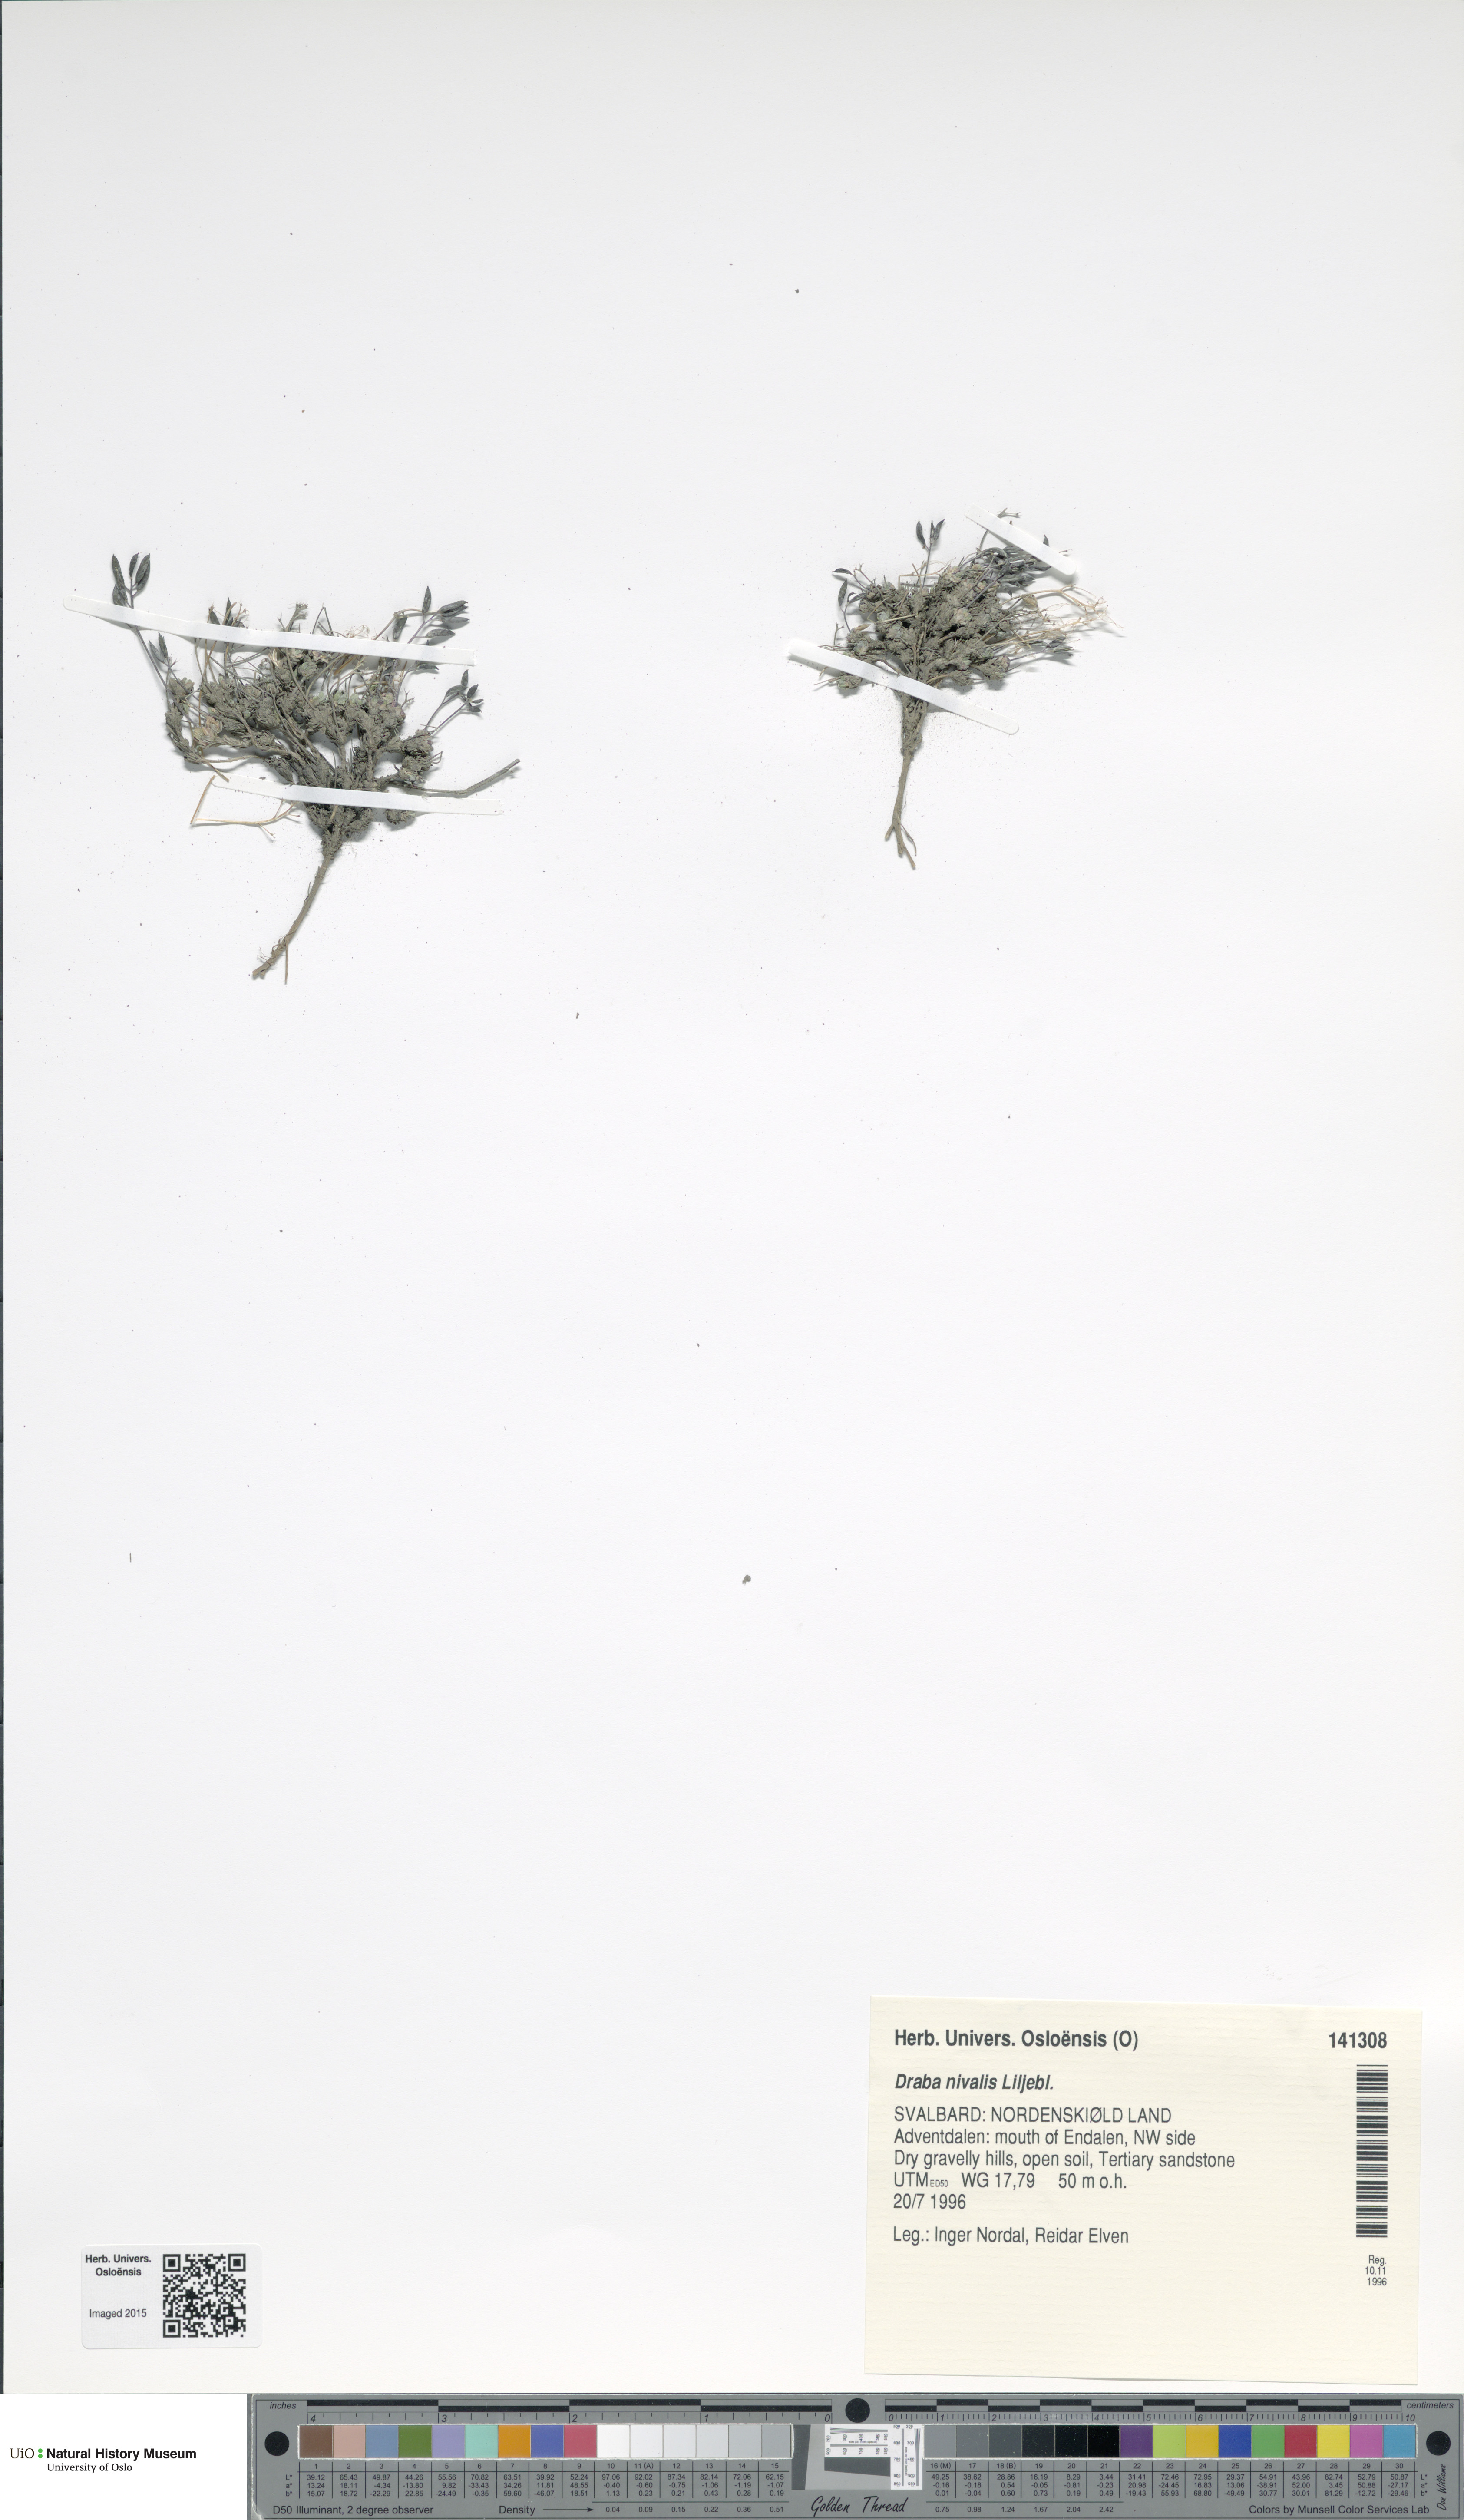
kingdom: Plantae
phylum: Tracheophyta
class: Magnoliopsida
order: Brassicales
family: Brassicaceae
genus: Draba
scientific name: Draba nivalis
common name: Snow draba
